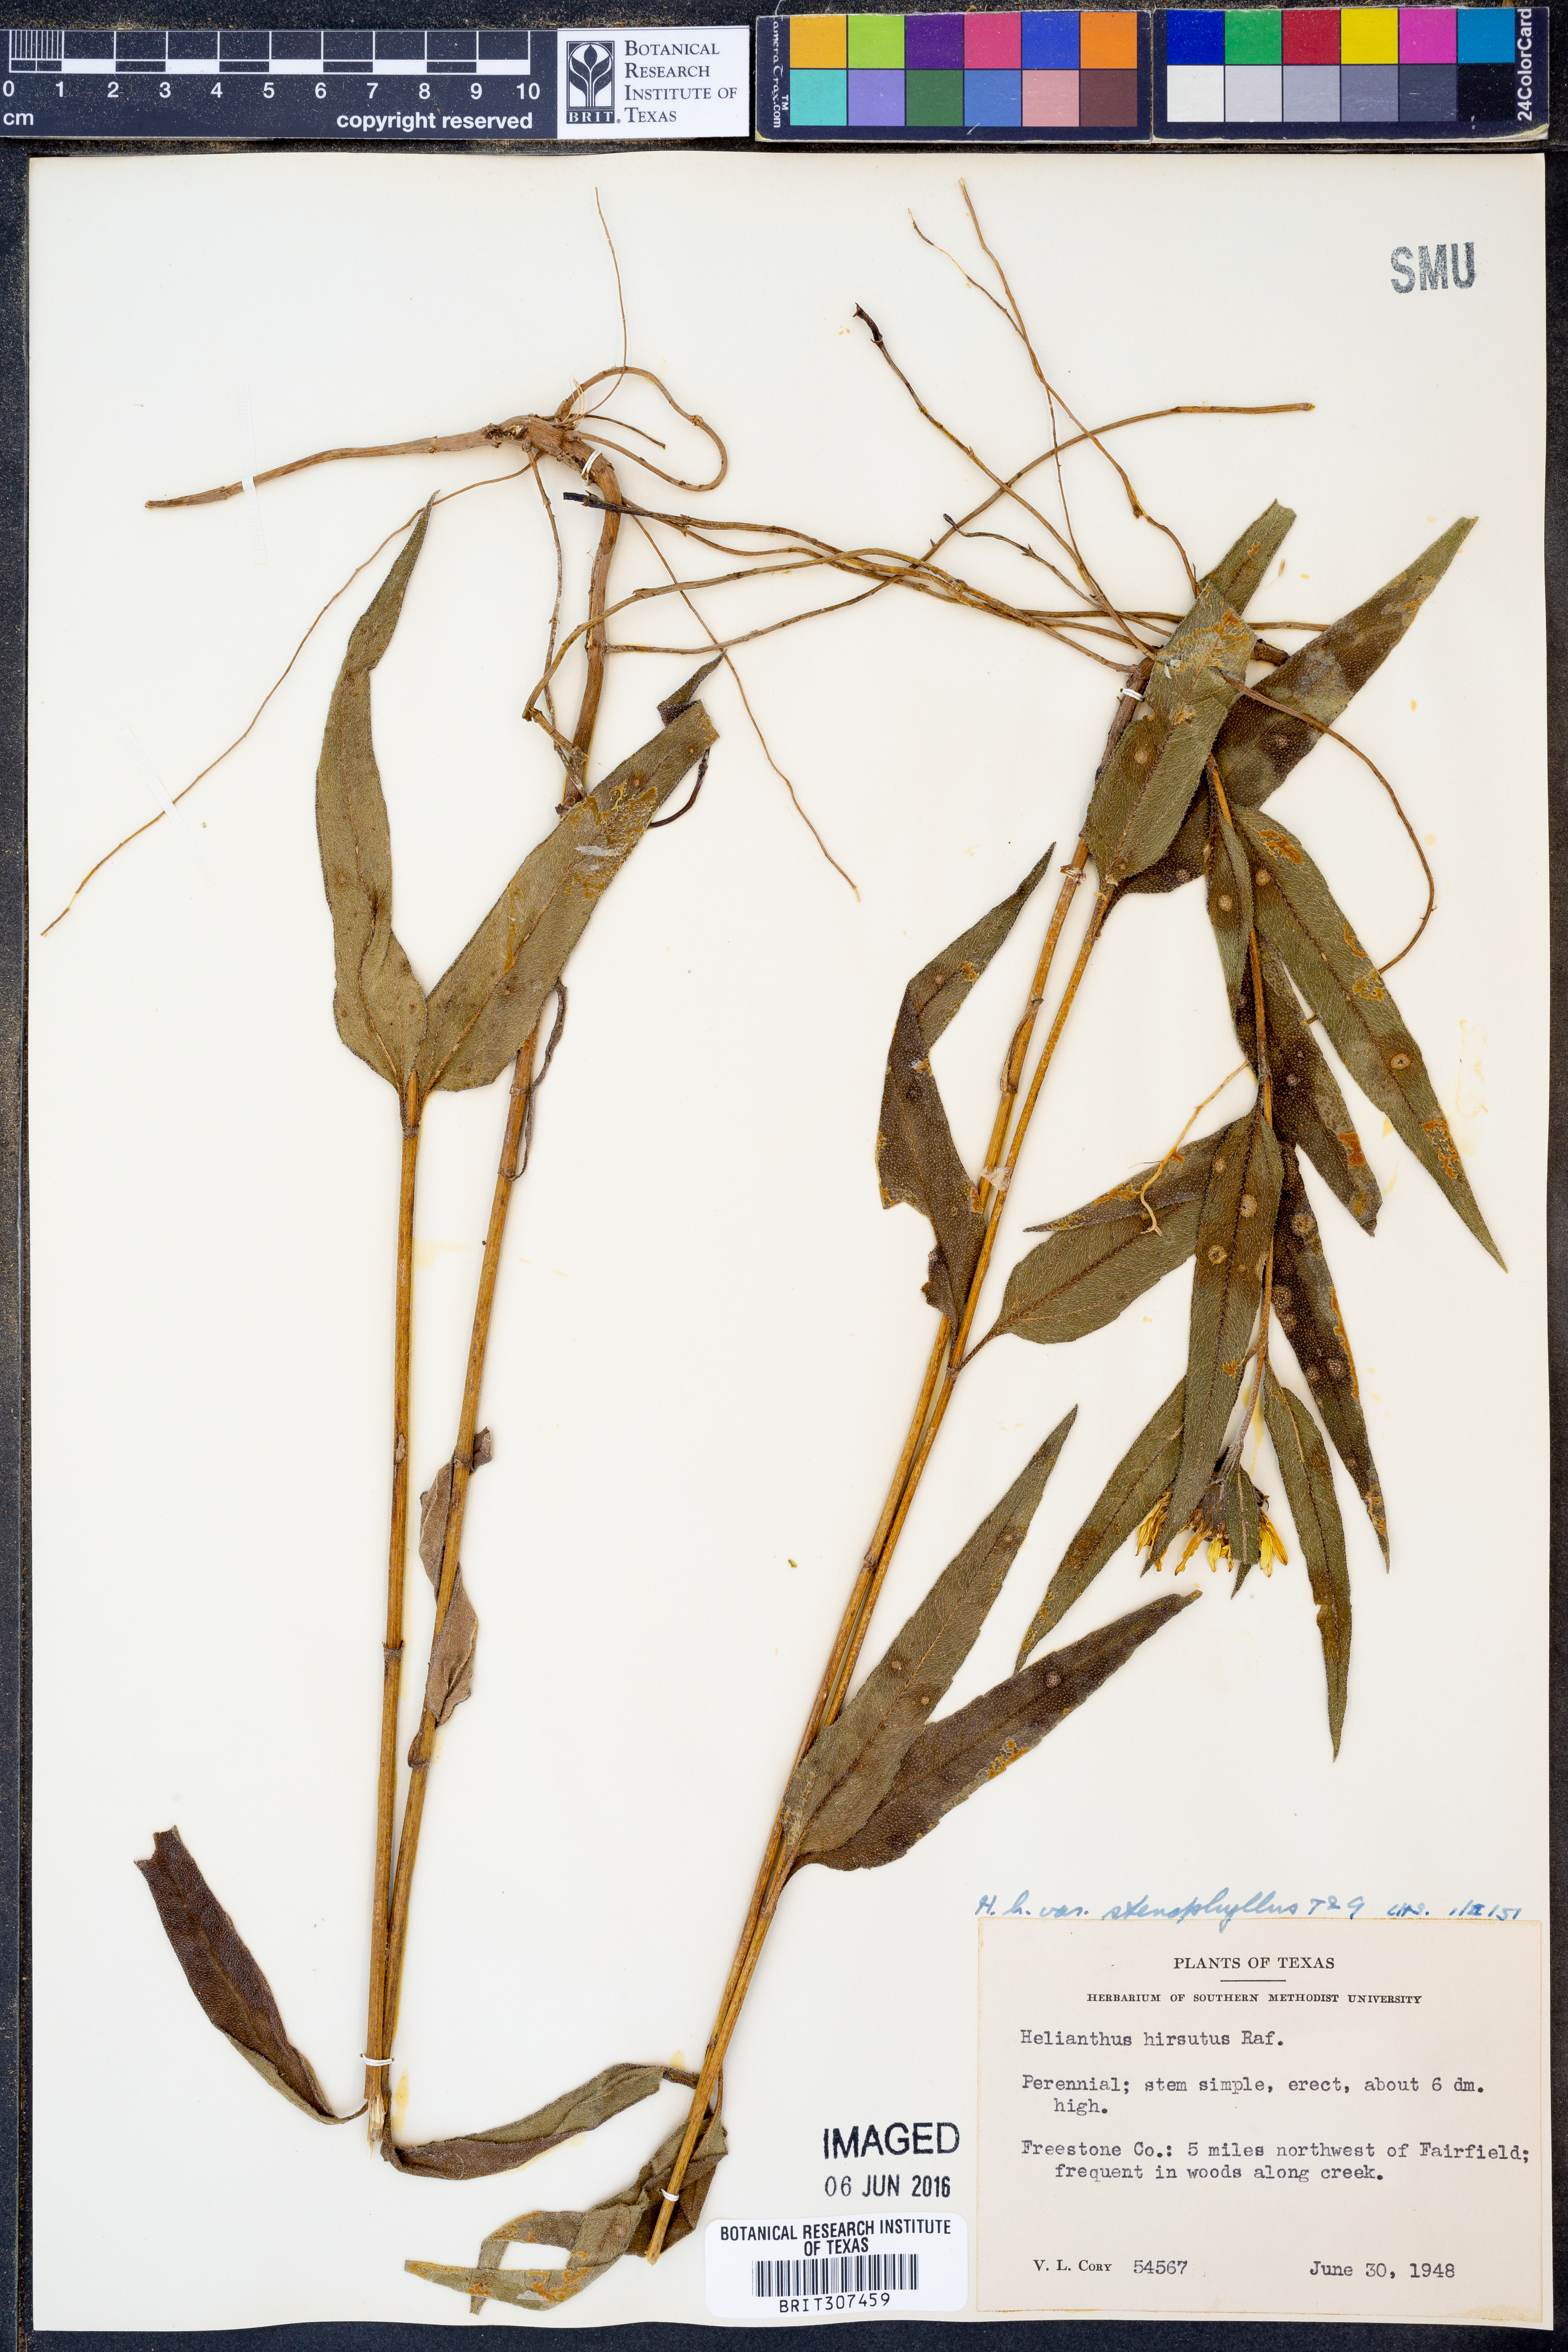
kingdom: Plantae
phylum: Tracheophyta
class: Magnoliopsida
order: Asterales
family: Asteraceae
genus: Helianthus
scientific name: Helianthus hirsutus
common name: Hairy sunflower
